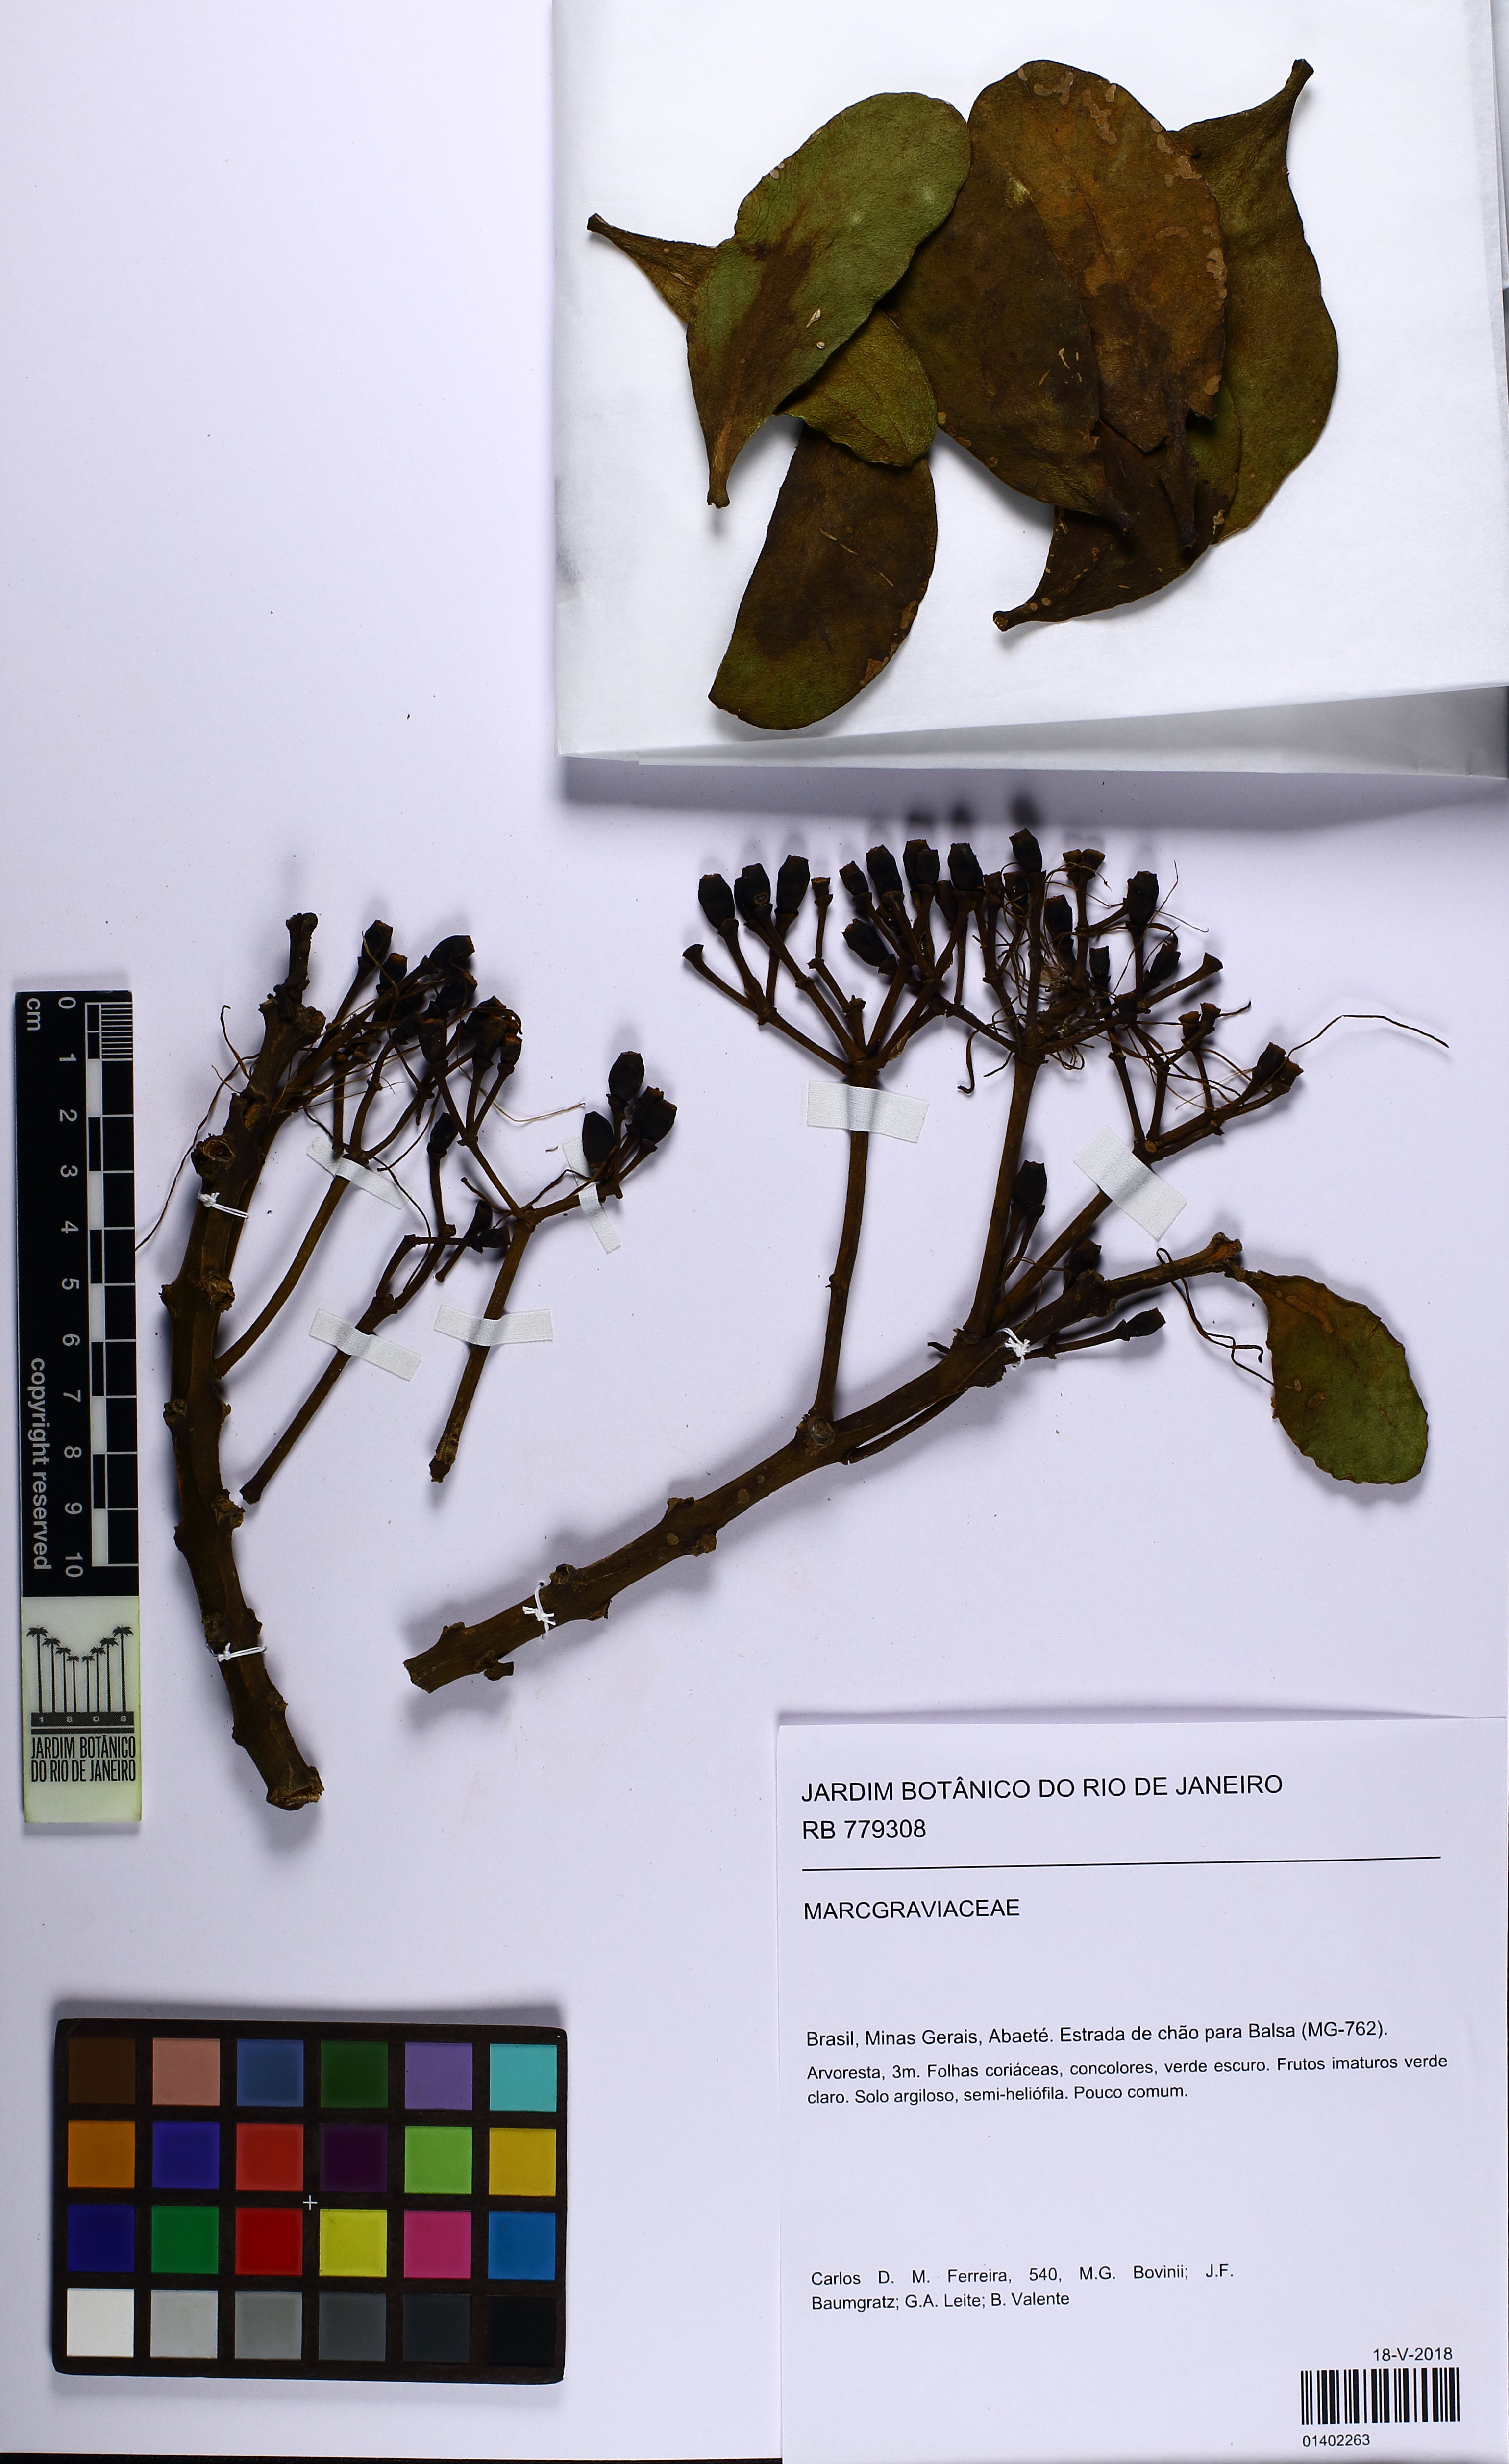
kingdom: Plantae
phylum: Tracheophyta
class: Magnoliopsida
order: Ericales
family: Marcgraviaceae
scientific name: Marcgraviaceae
